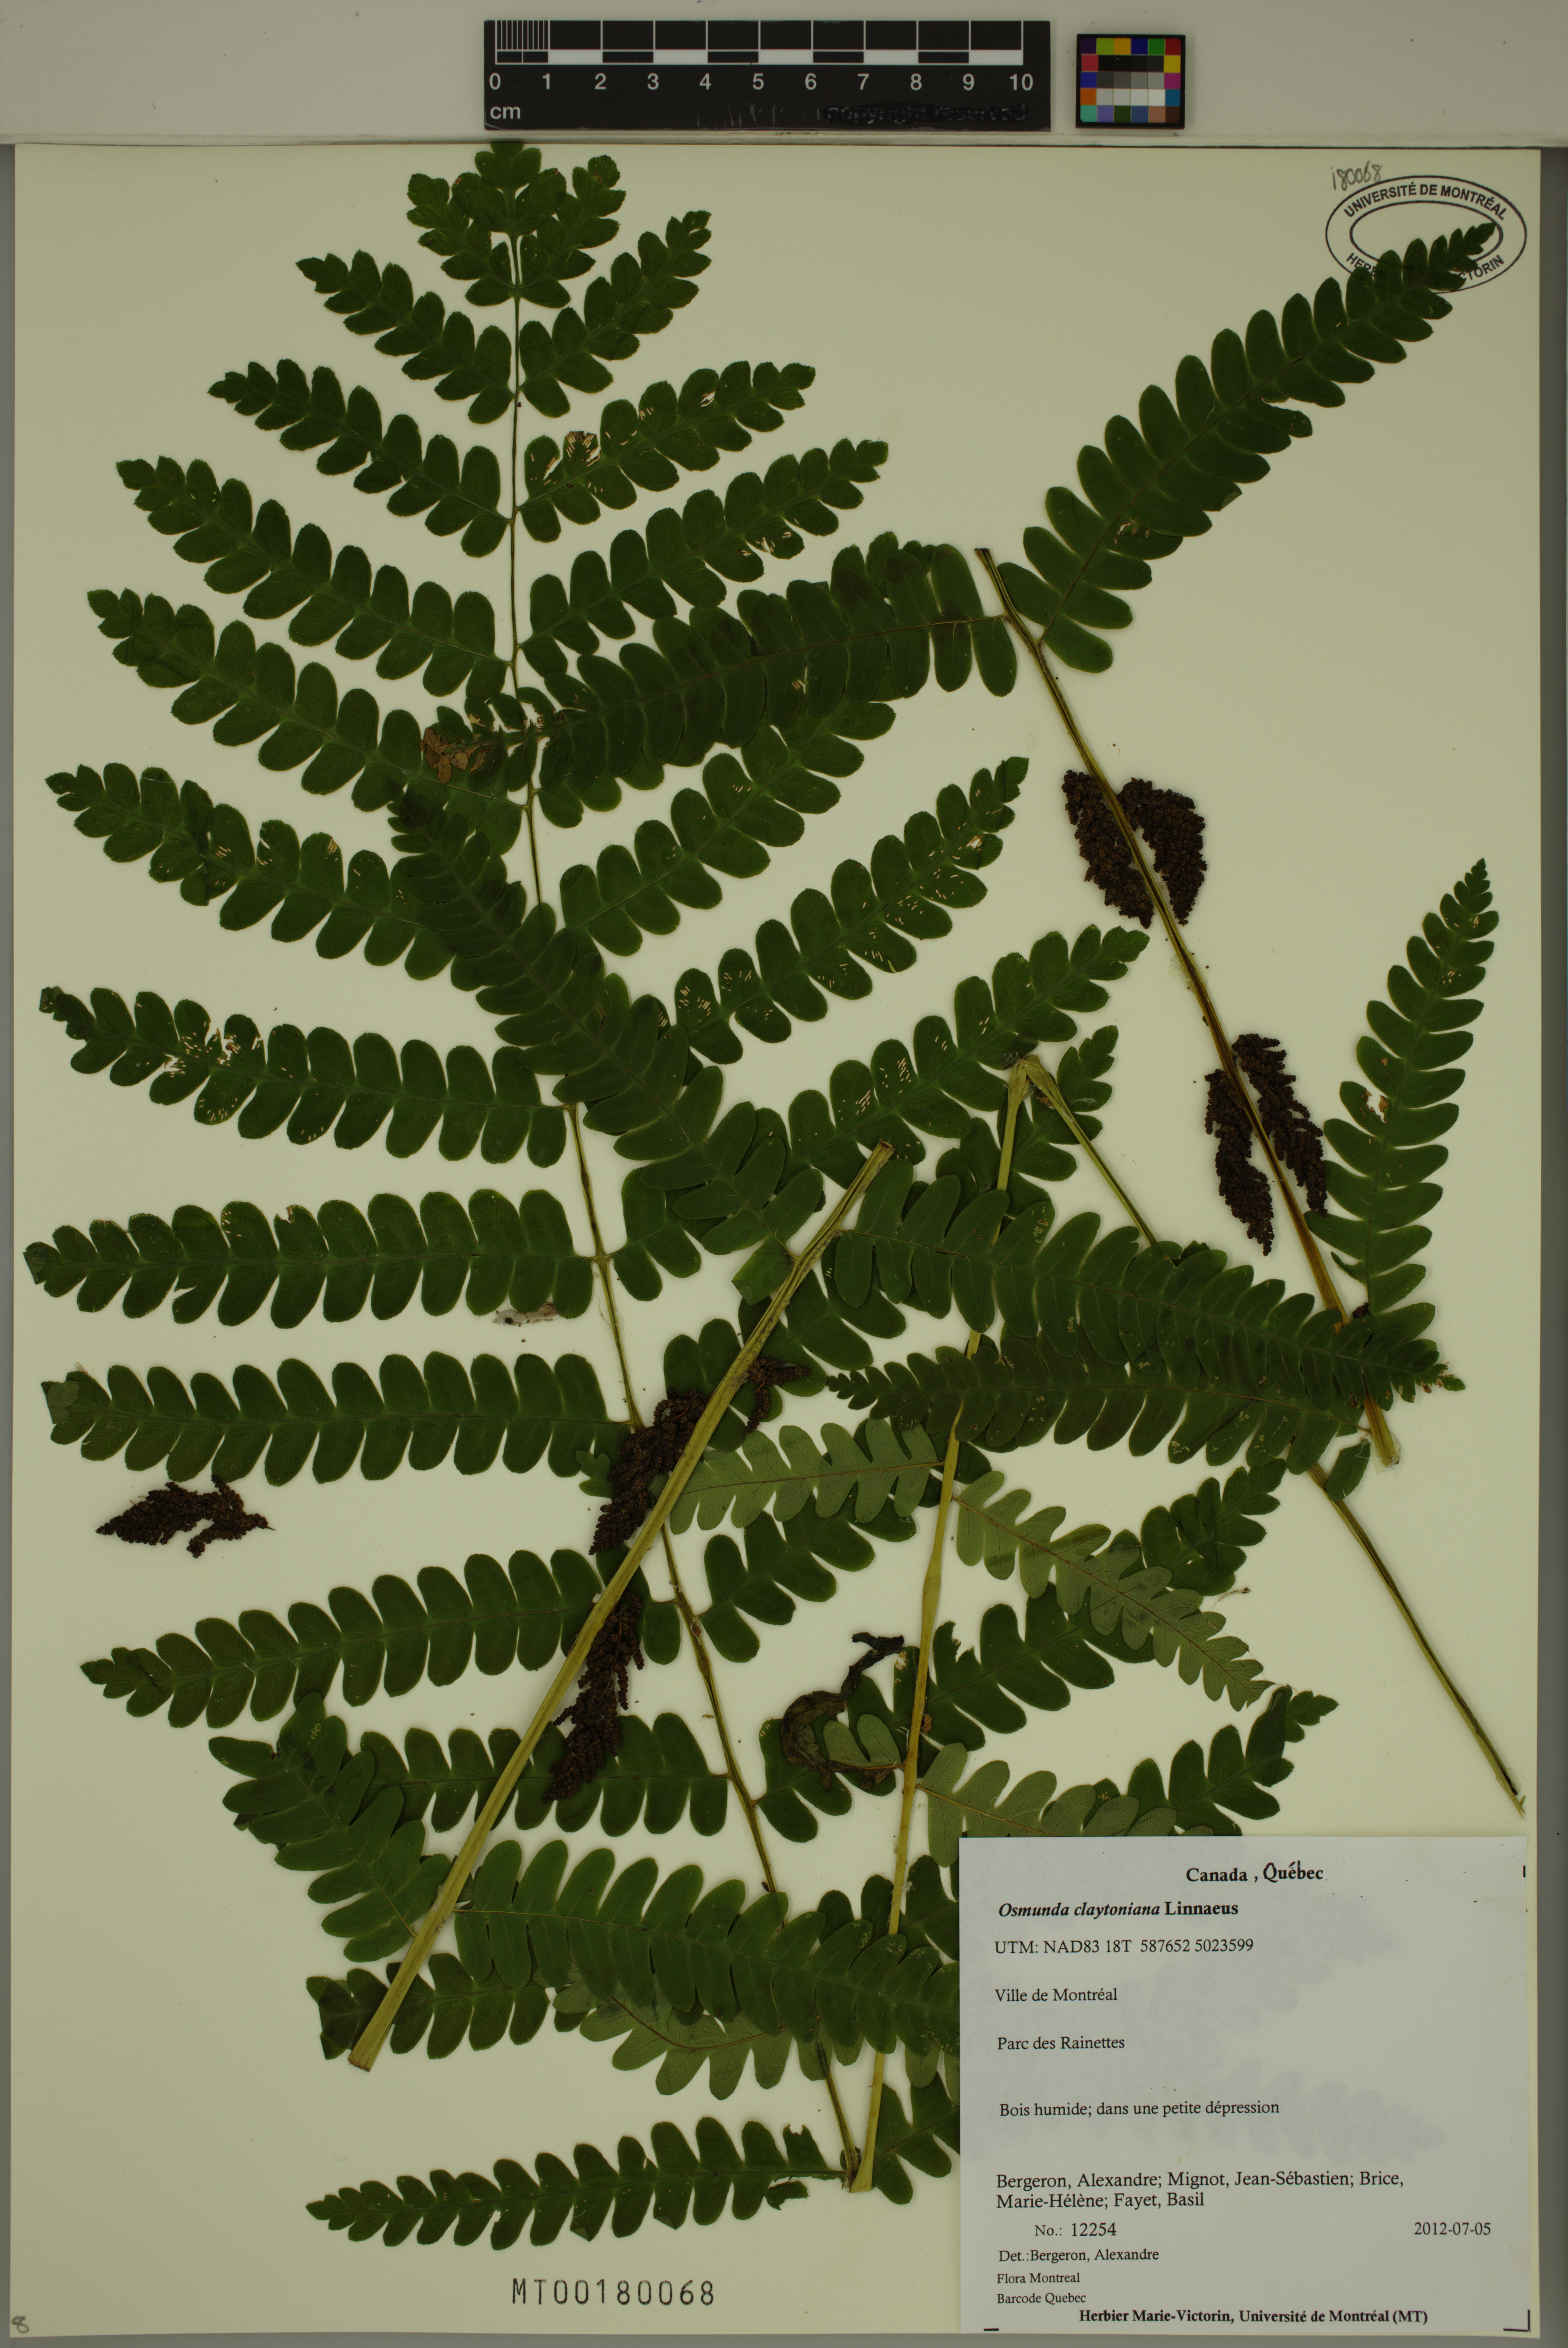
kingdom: Plantae
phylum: Tracheophyta
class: Polypodiopsida
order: Osmundales
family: Osmundaceae
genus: Claytosmunda
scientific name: Claytosmunda claytoniana
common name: Clayton's fern
